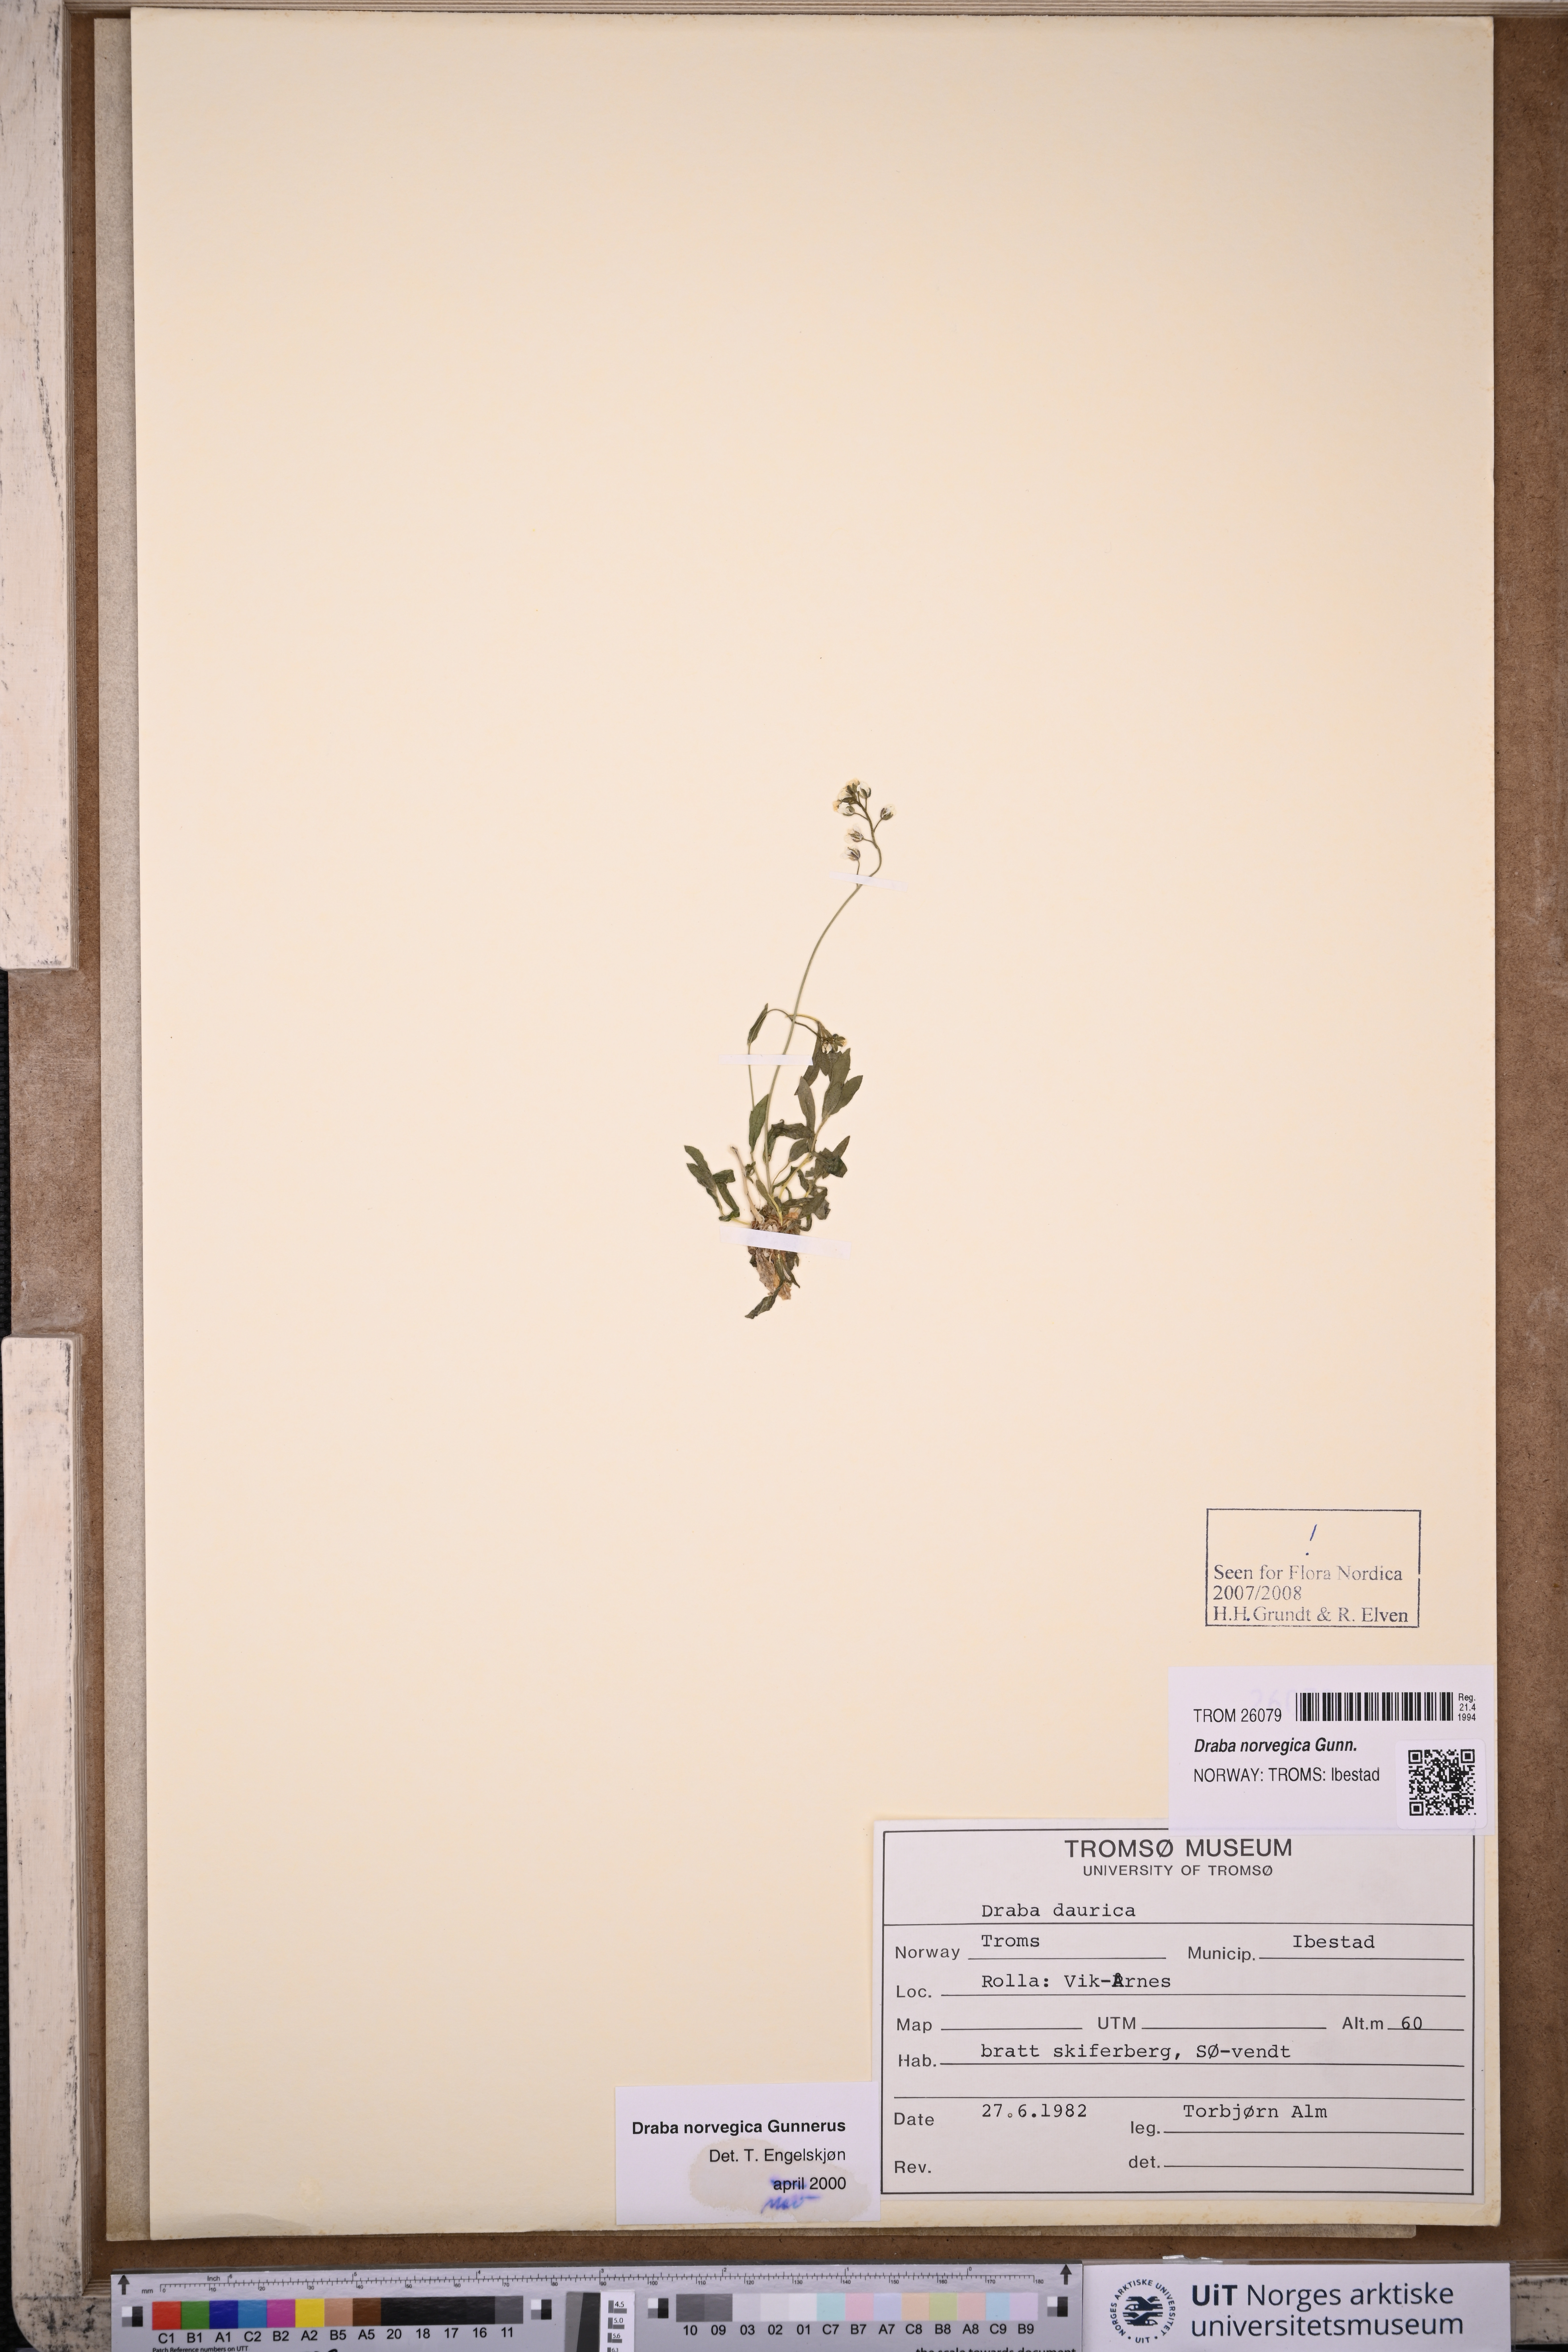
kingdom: Plantae
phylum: Tracheophyta
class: Magnoliopsida
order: Brassicales
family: Brassicaceae
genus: Draba
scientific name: Draba norvegica
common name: Rock whitlowgrass
